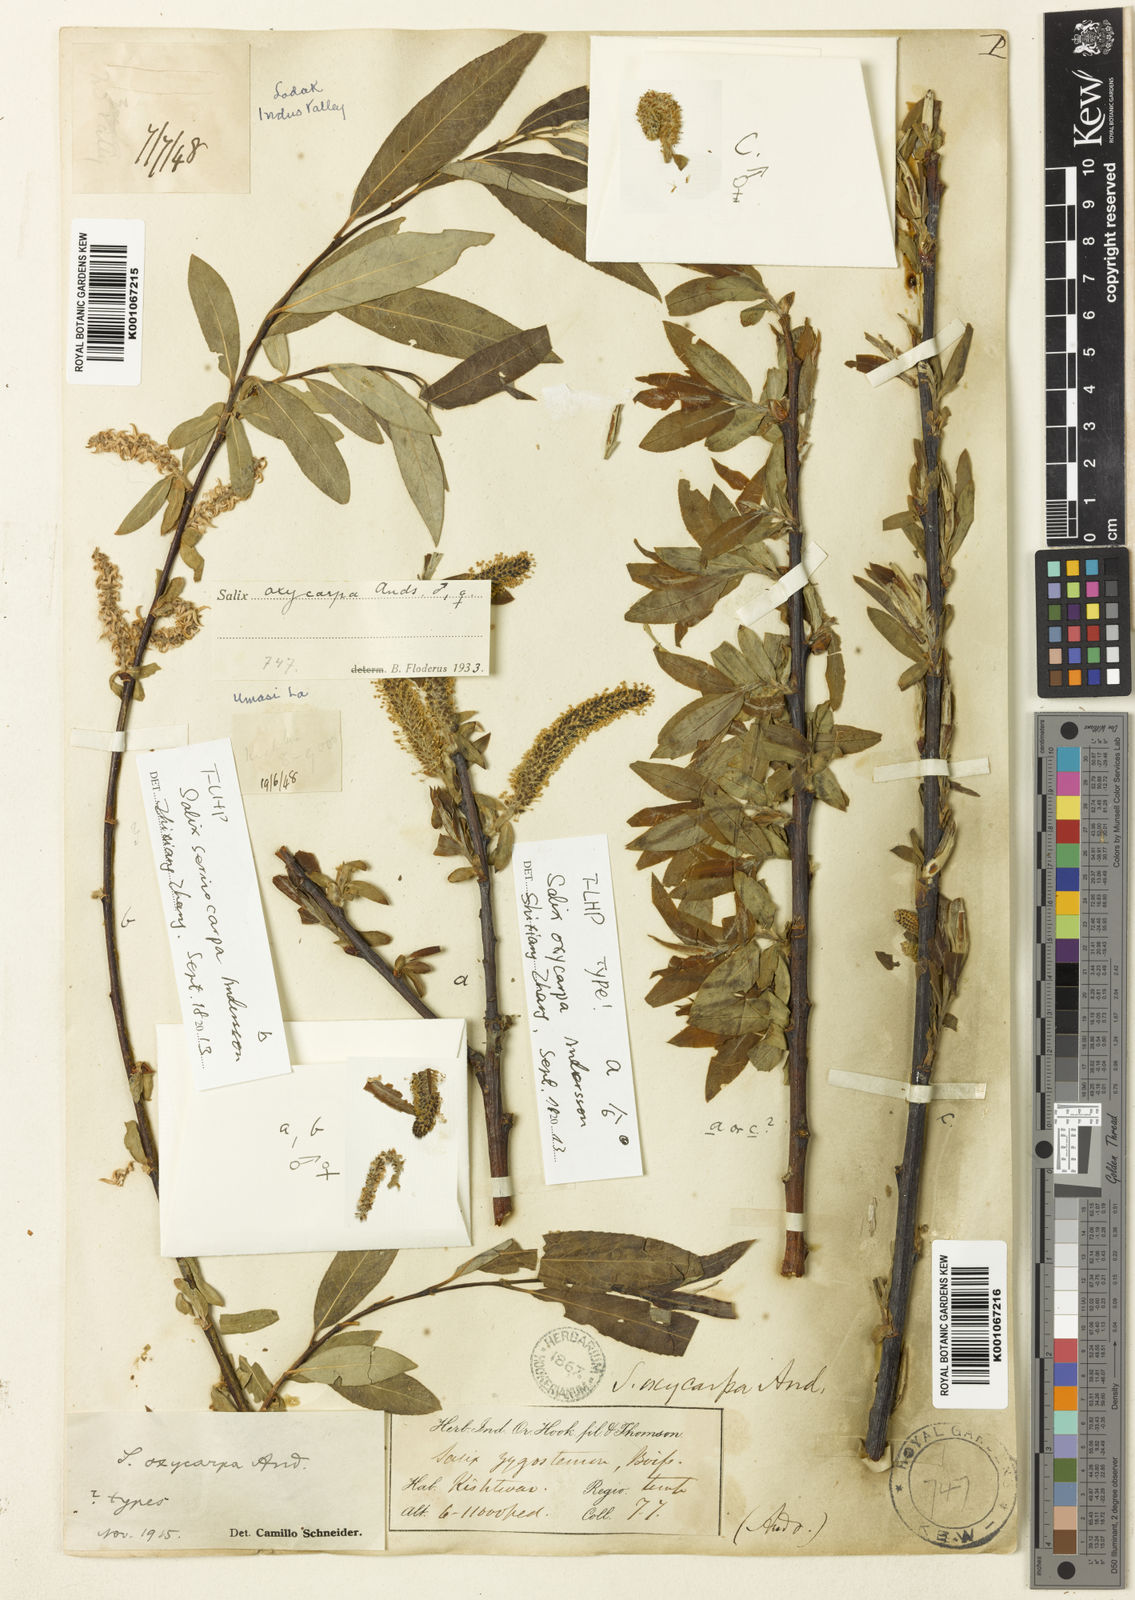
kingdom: Plantae
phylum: Tracheophyta
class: Magnoliopsida
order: Malpighiales
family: Salicaceae
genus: Salix
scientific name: Salix sericocarpa
